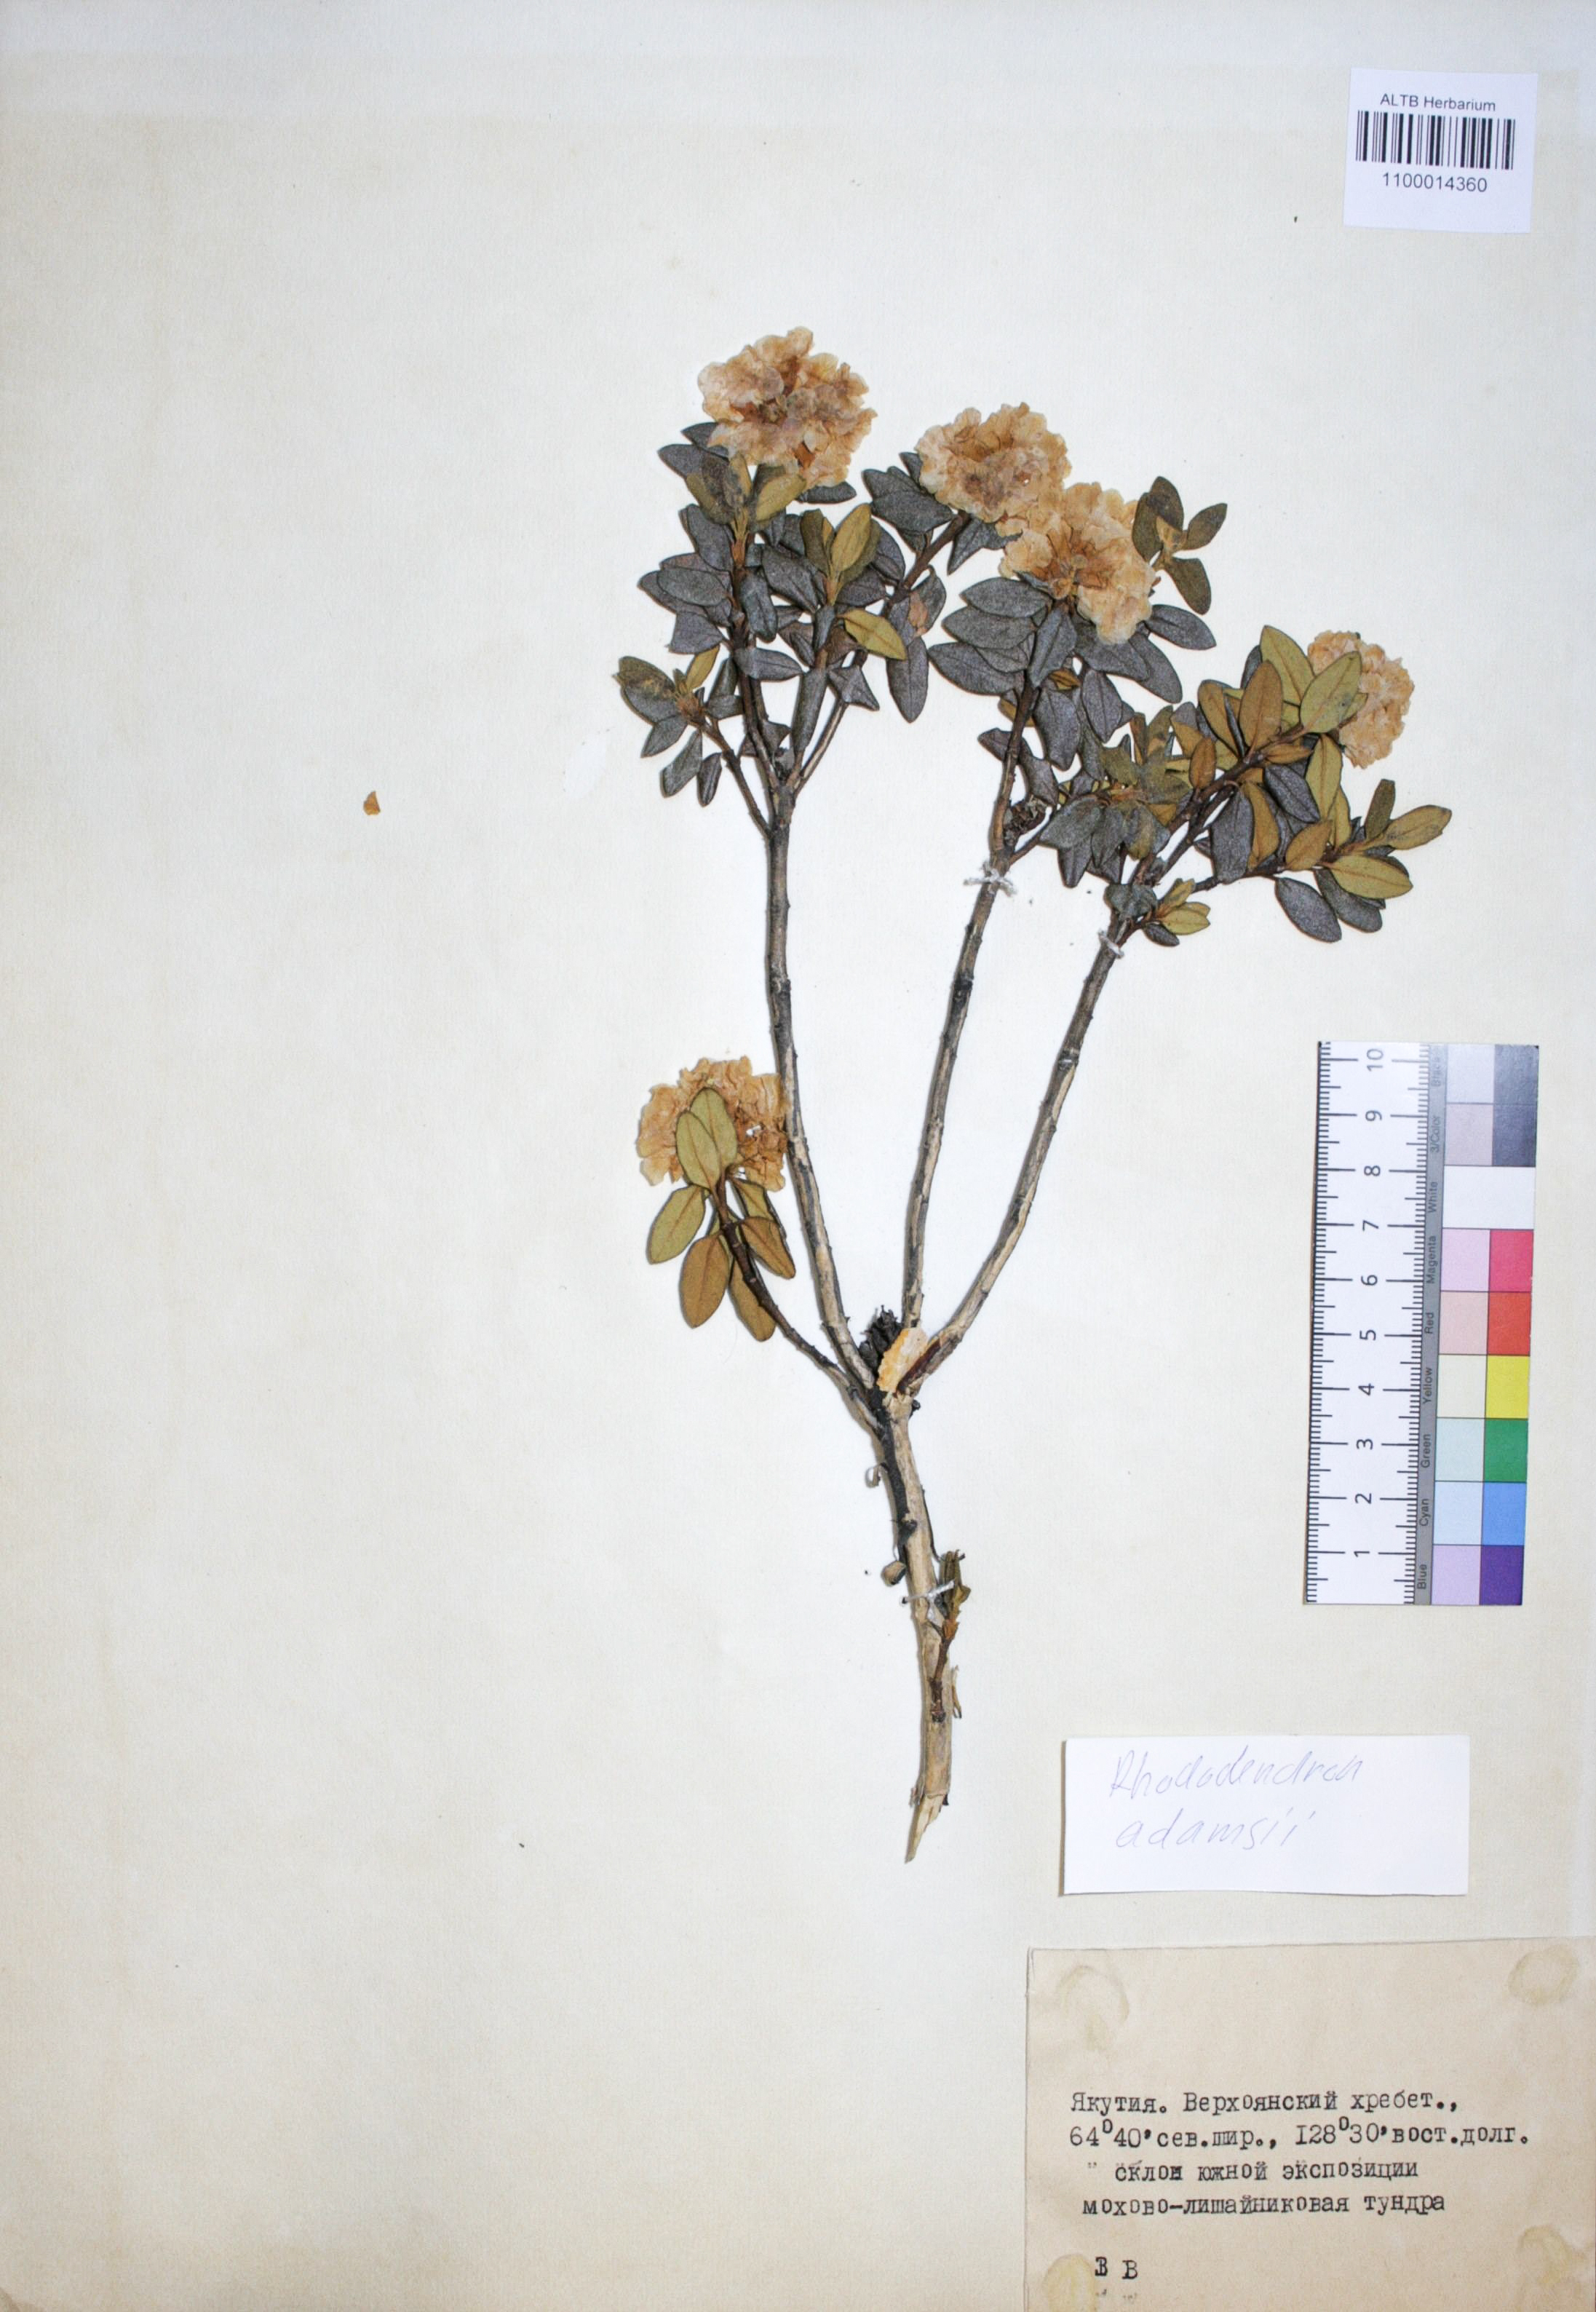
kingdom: Plantae
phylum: Tracheophyta
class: Magnoliopsida
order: Ericales
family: Ericaceae
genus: Rhododendron
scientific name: Rhododendron adamsii
